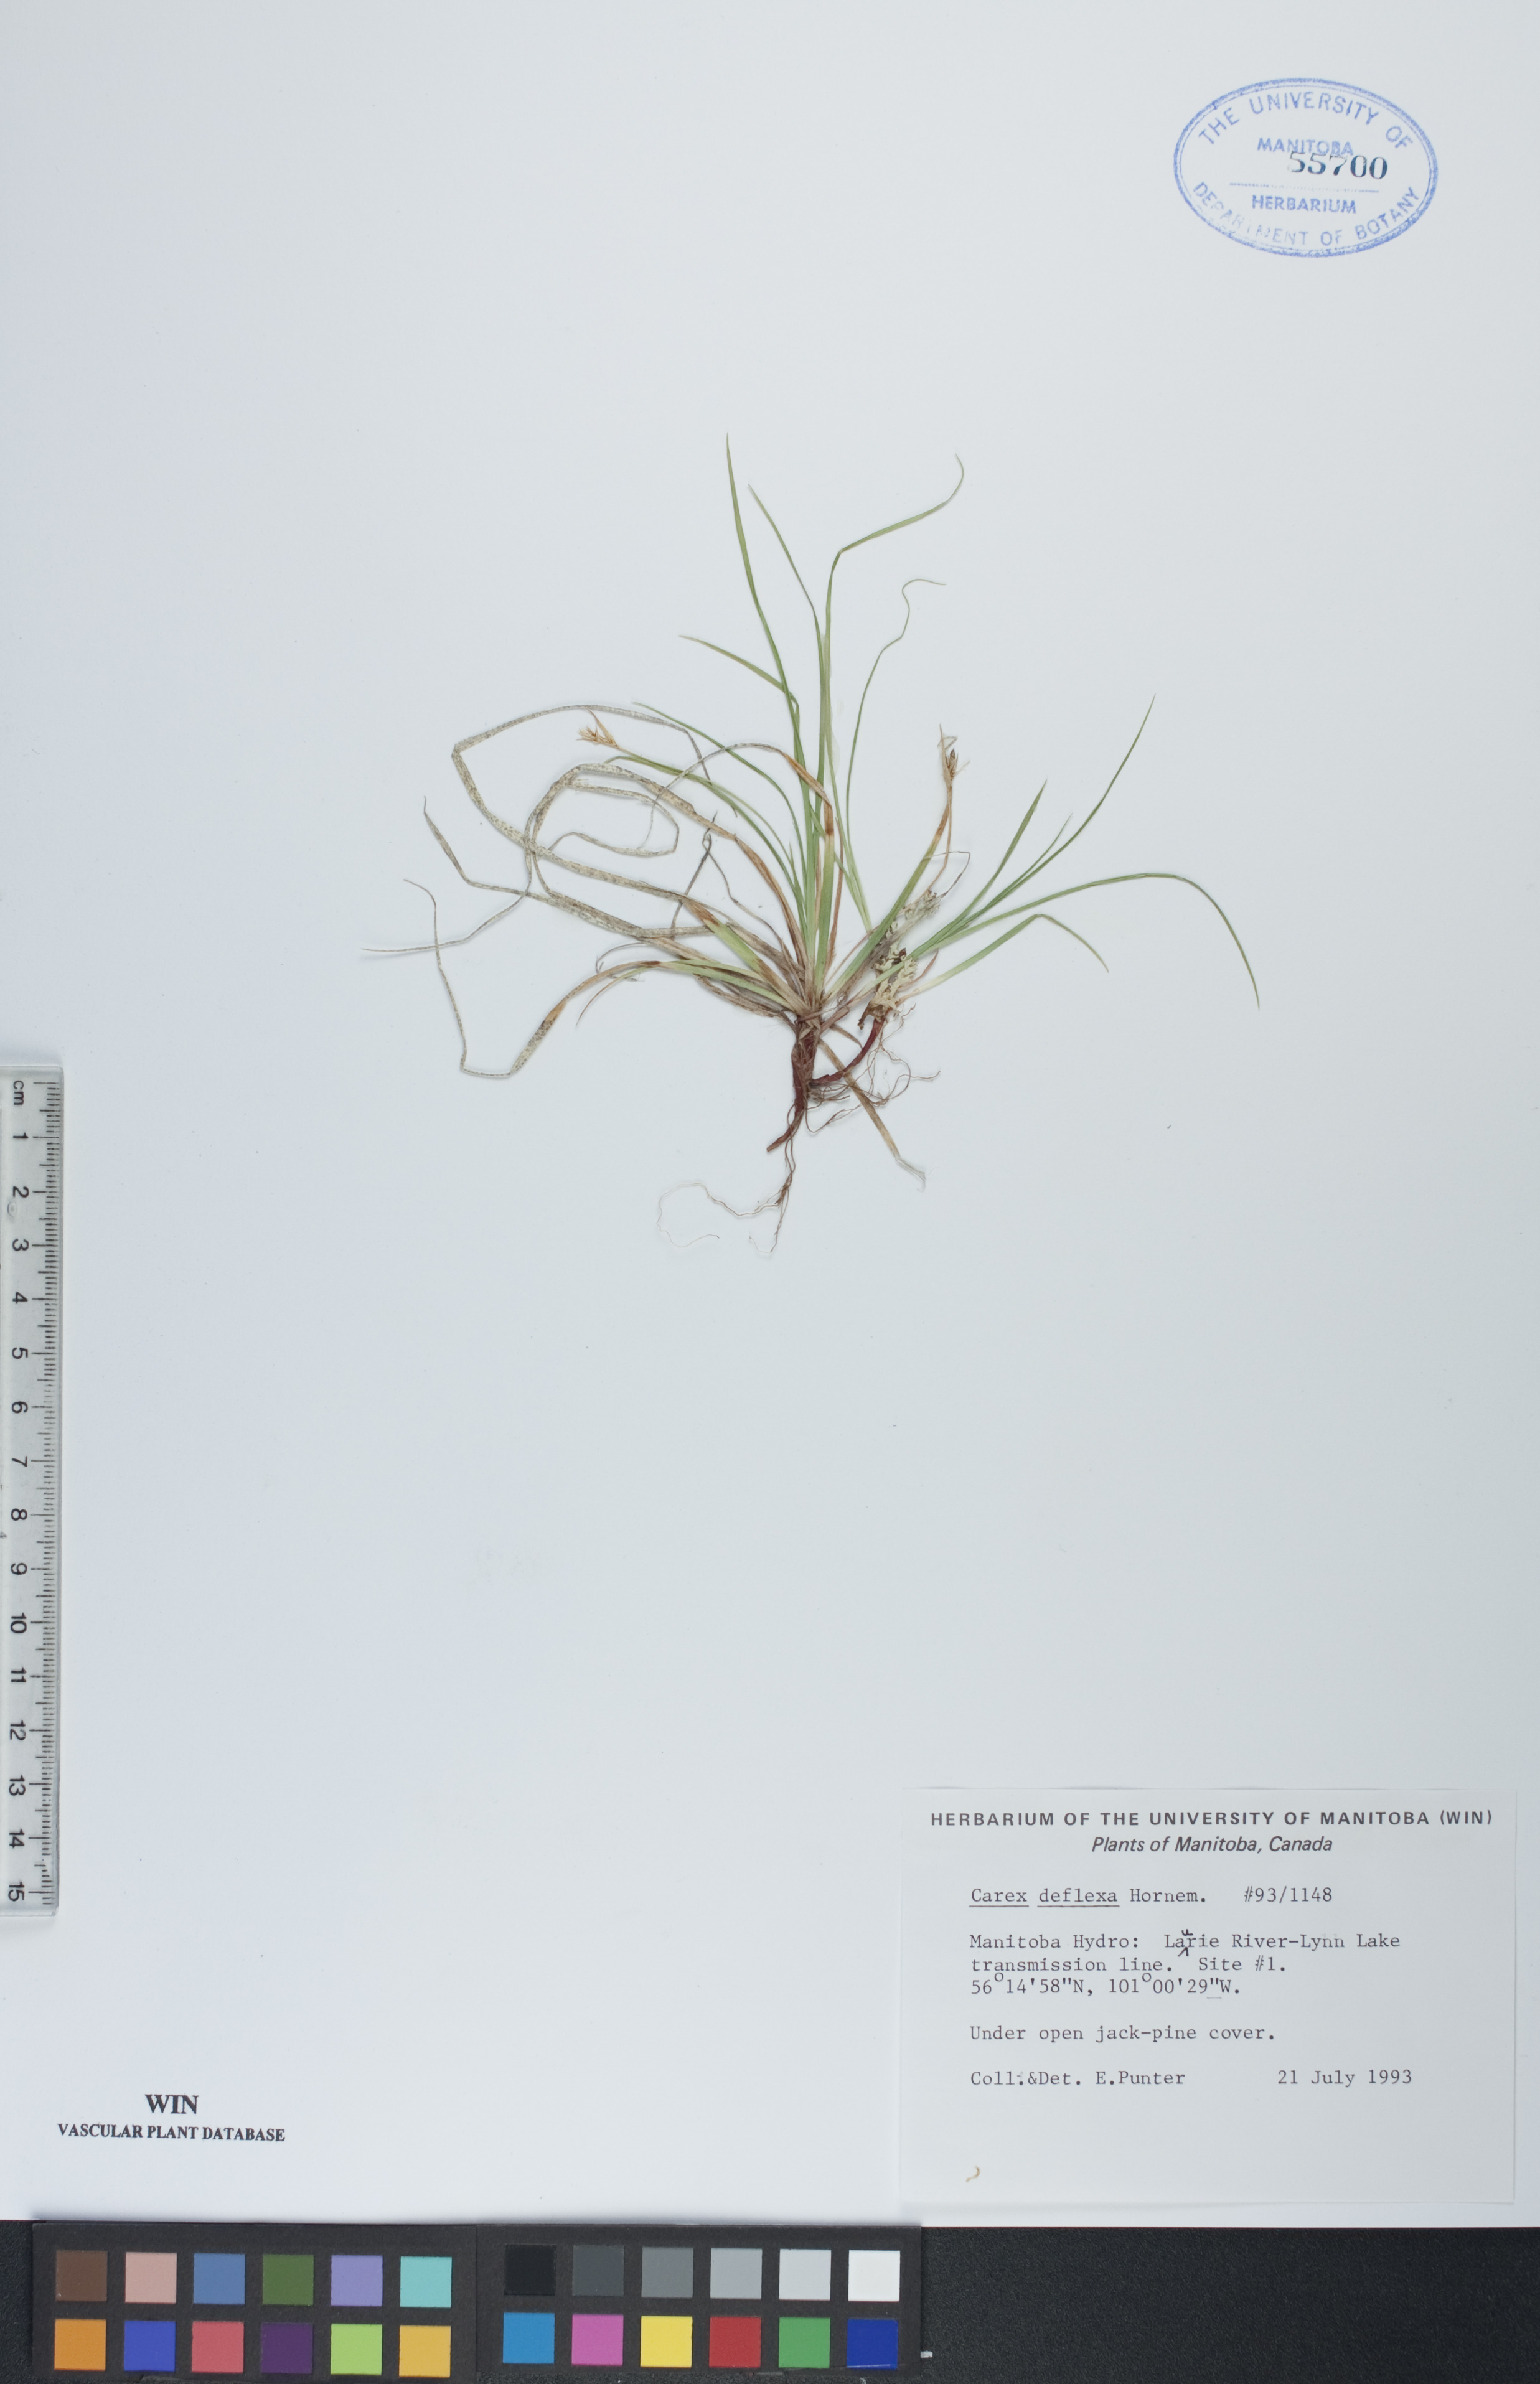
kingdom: Plantae
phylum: Tracheophyta
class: Liliopsida
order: Poales
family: Cyperaceae
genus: Carex
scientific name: Carex deflexa
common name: Bent northern sedge
